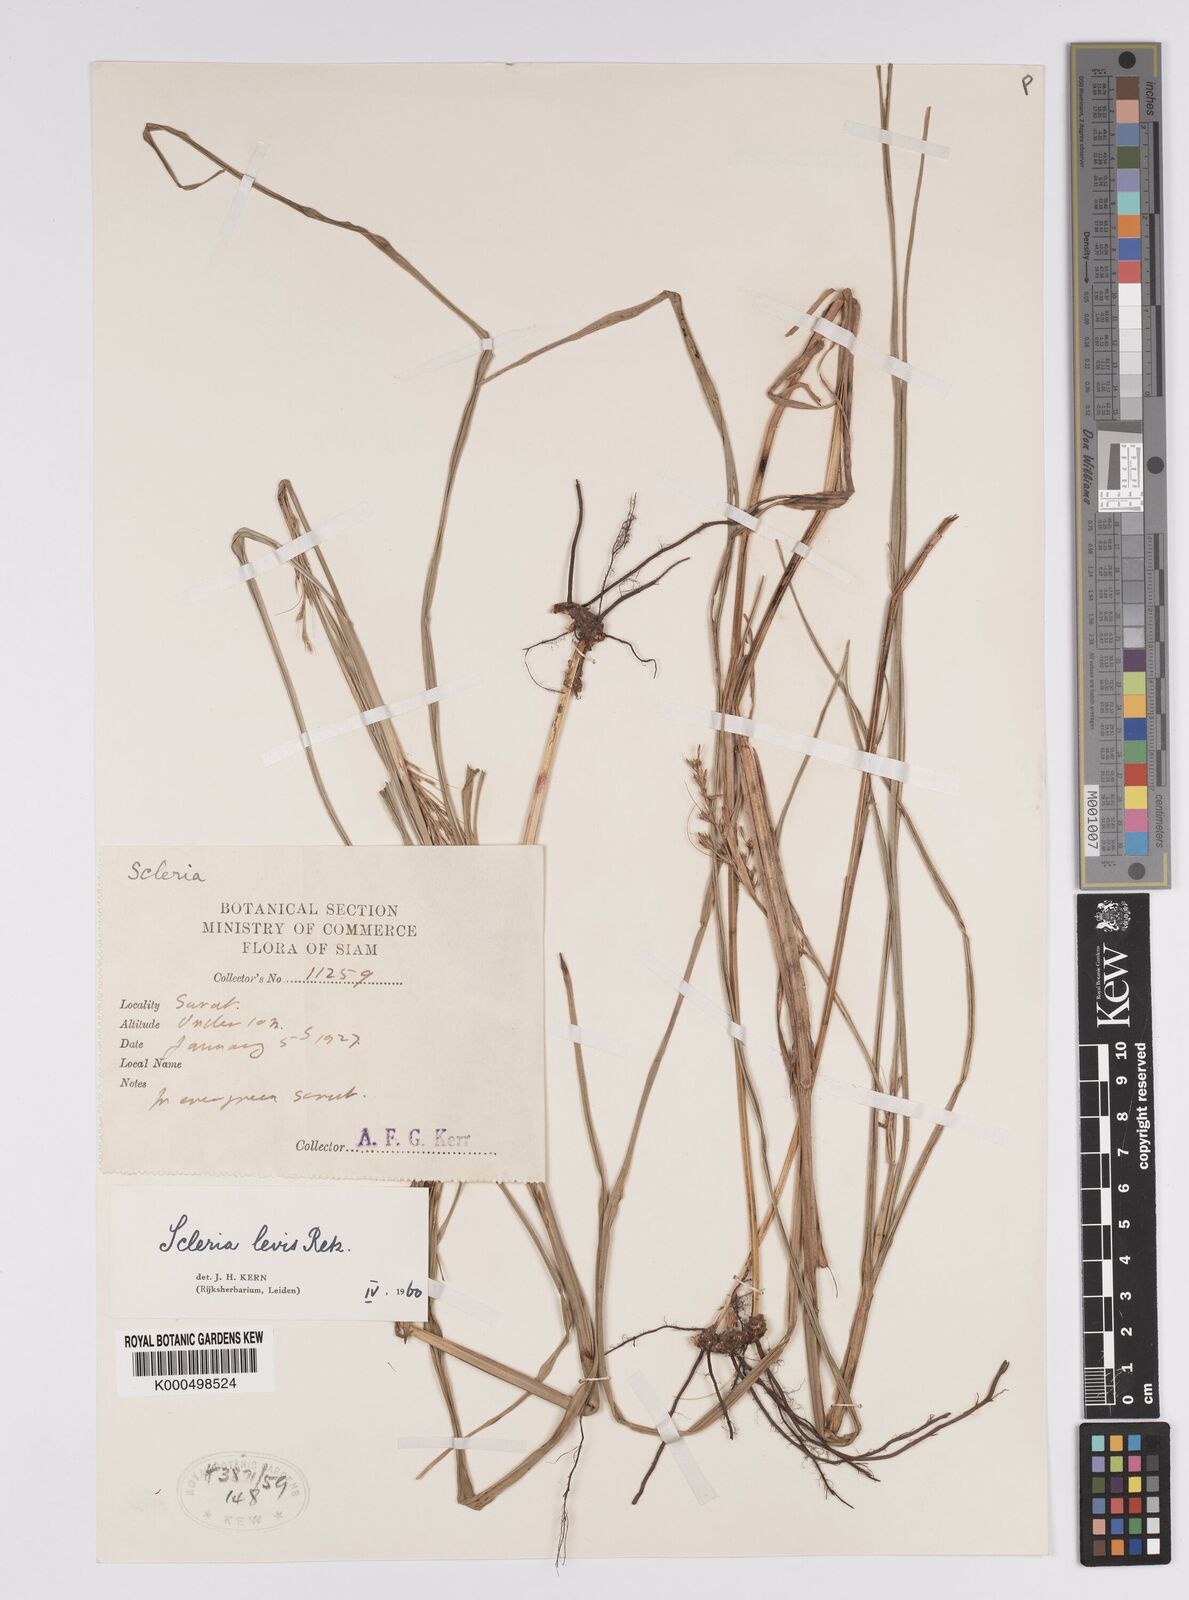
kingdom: Plantae
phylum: Tracheophyta
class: Liliopsida
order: Poales
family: Cyperaceae
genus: Scleria
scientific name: Scleria levis
